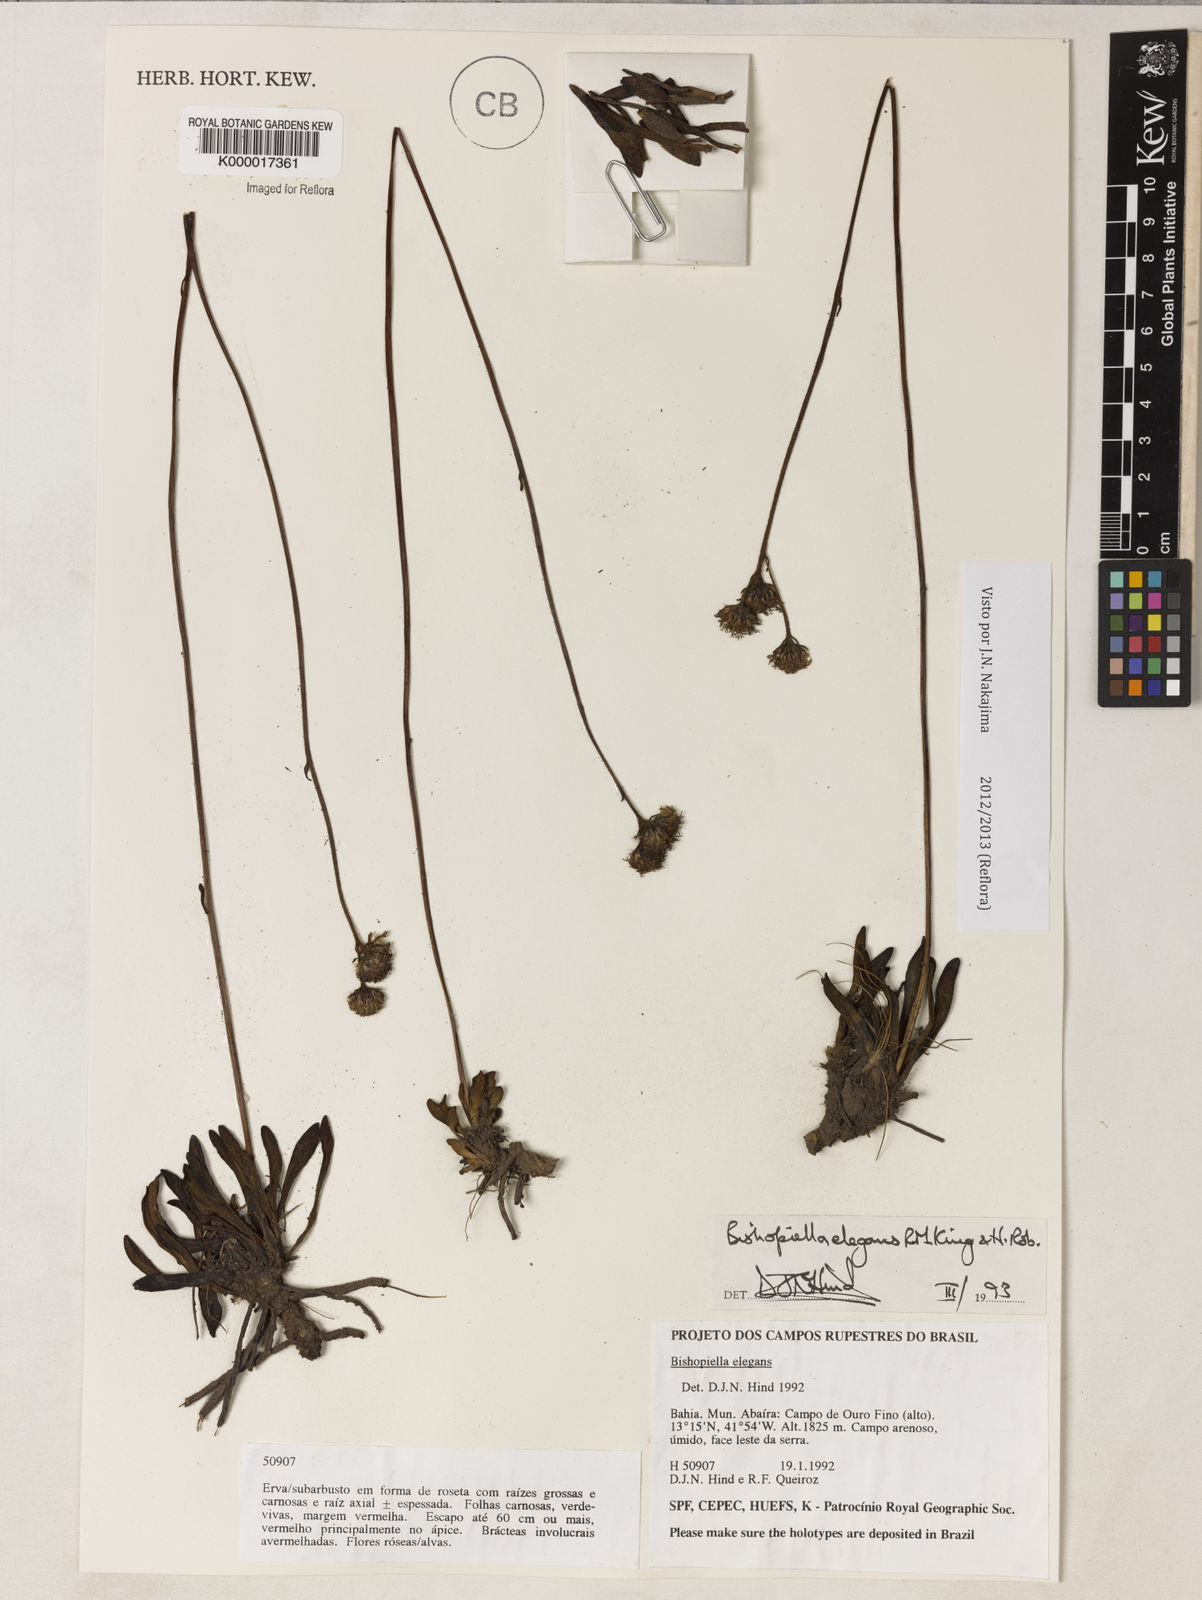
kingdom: Plantae
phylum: Tracheophyta
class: Magnoliopsida
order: Asterales
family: Asteraceae
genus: Bishopiella
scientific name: Bishopiella elegans
